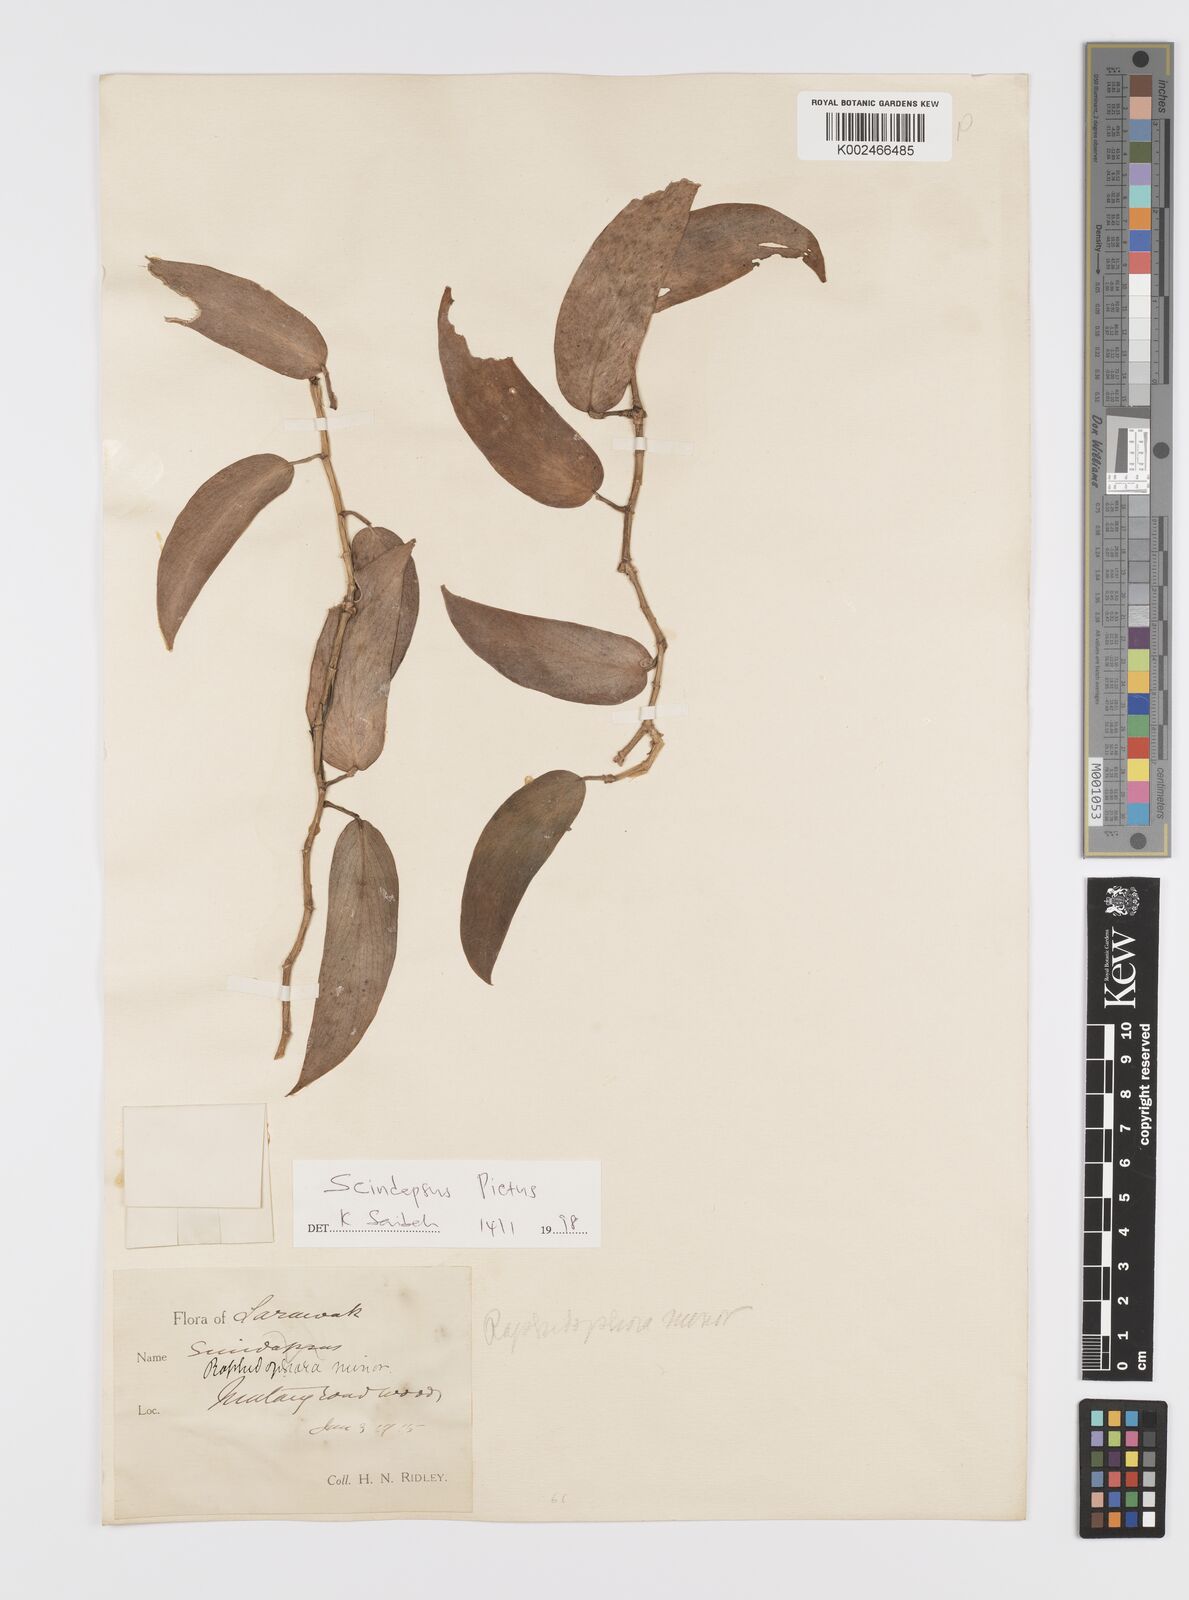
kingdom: Plantae
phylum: Tracheophyta
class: Liliopsida
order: Alismatales
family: Araceae
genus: Scindapsus
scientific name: Scindapsus pictus
